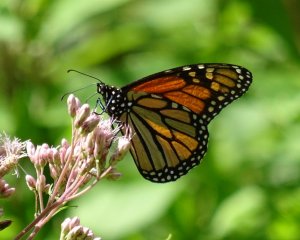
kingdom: Animalia
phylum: Arthropoda
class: Insecta
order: Lepidoptera
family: Nymphalidae
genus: Danaus
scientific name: Danaus plexippus
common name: Monarch
